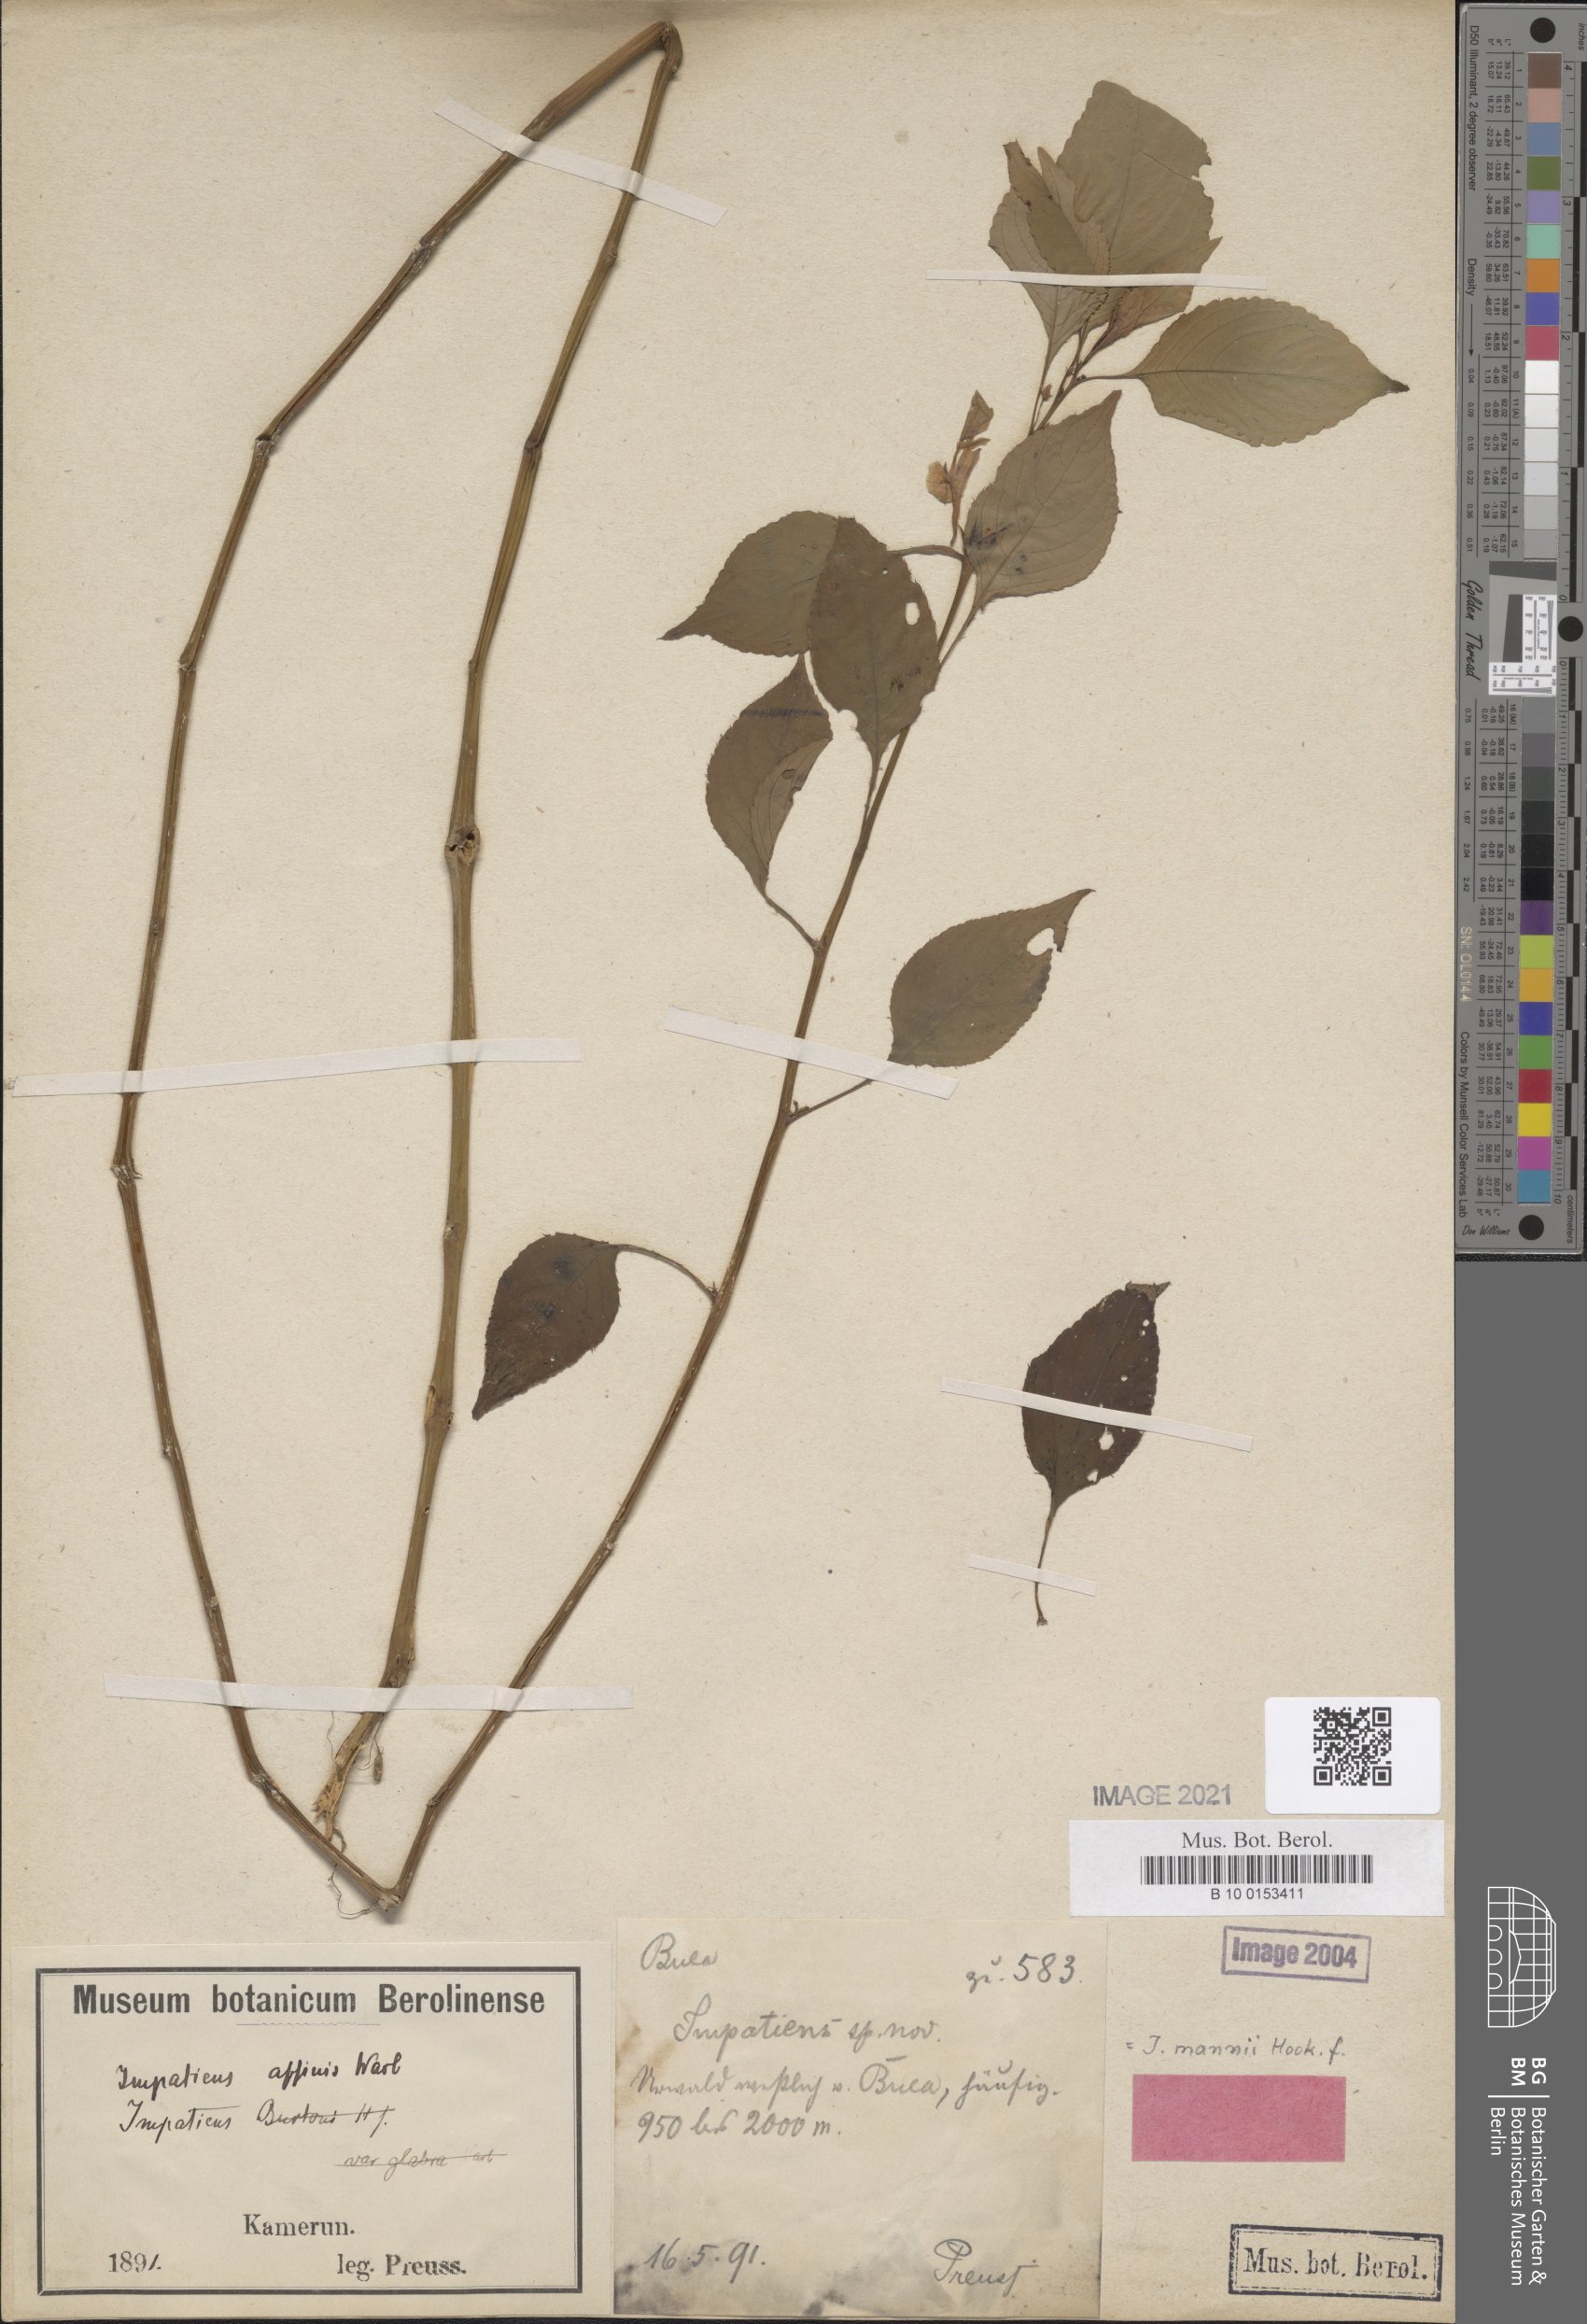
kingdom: Plantae
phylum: Tracheophyta
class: Magnoliopsida
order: Ericales
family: Balsaminaceae
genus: Impatiens
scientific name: Impatiens mannii
